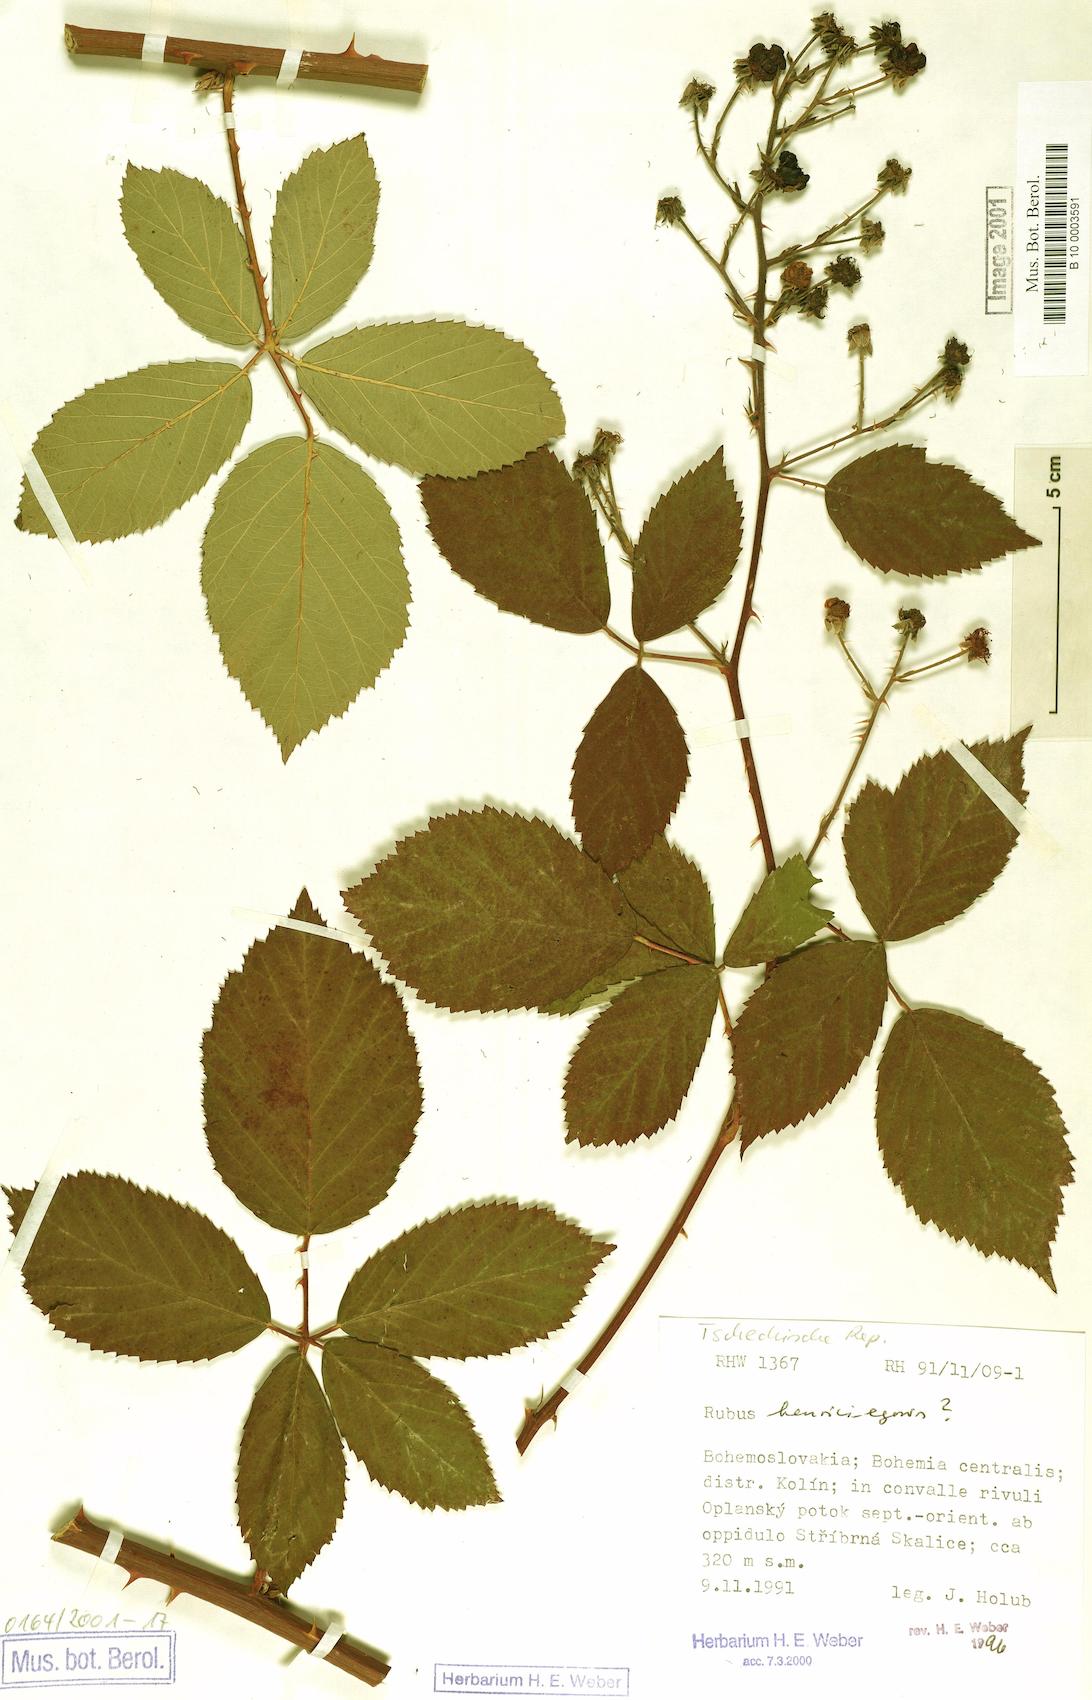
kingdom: Plantae
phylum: Tracheophyta
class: Magnoliopsida
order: Rosales
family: Rosaceae
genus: Rubus
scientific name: Rubus henrici-egonis
